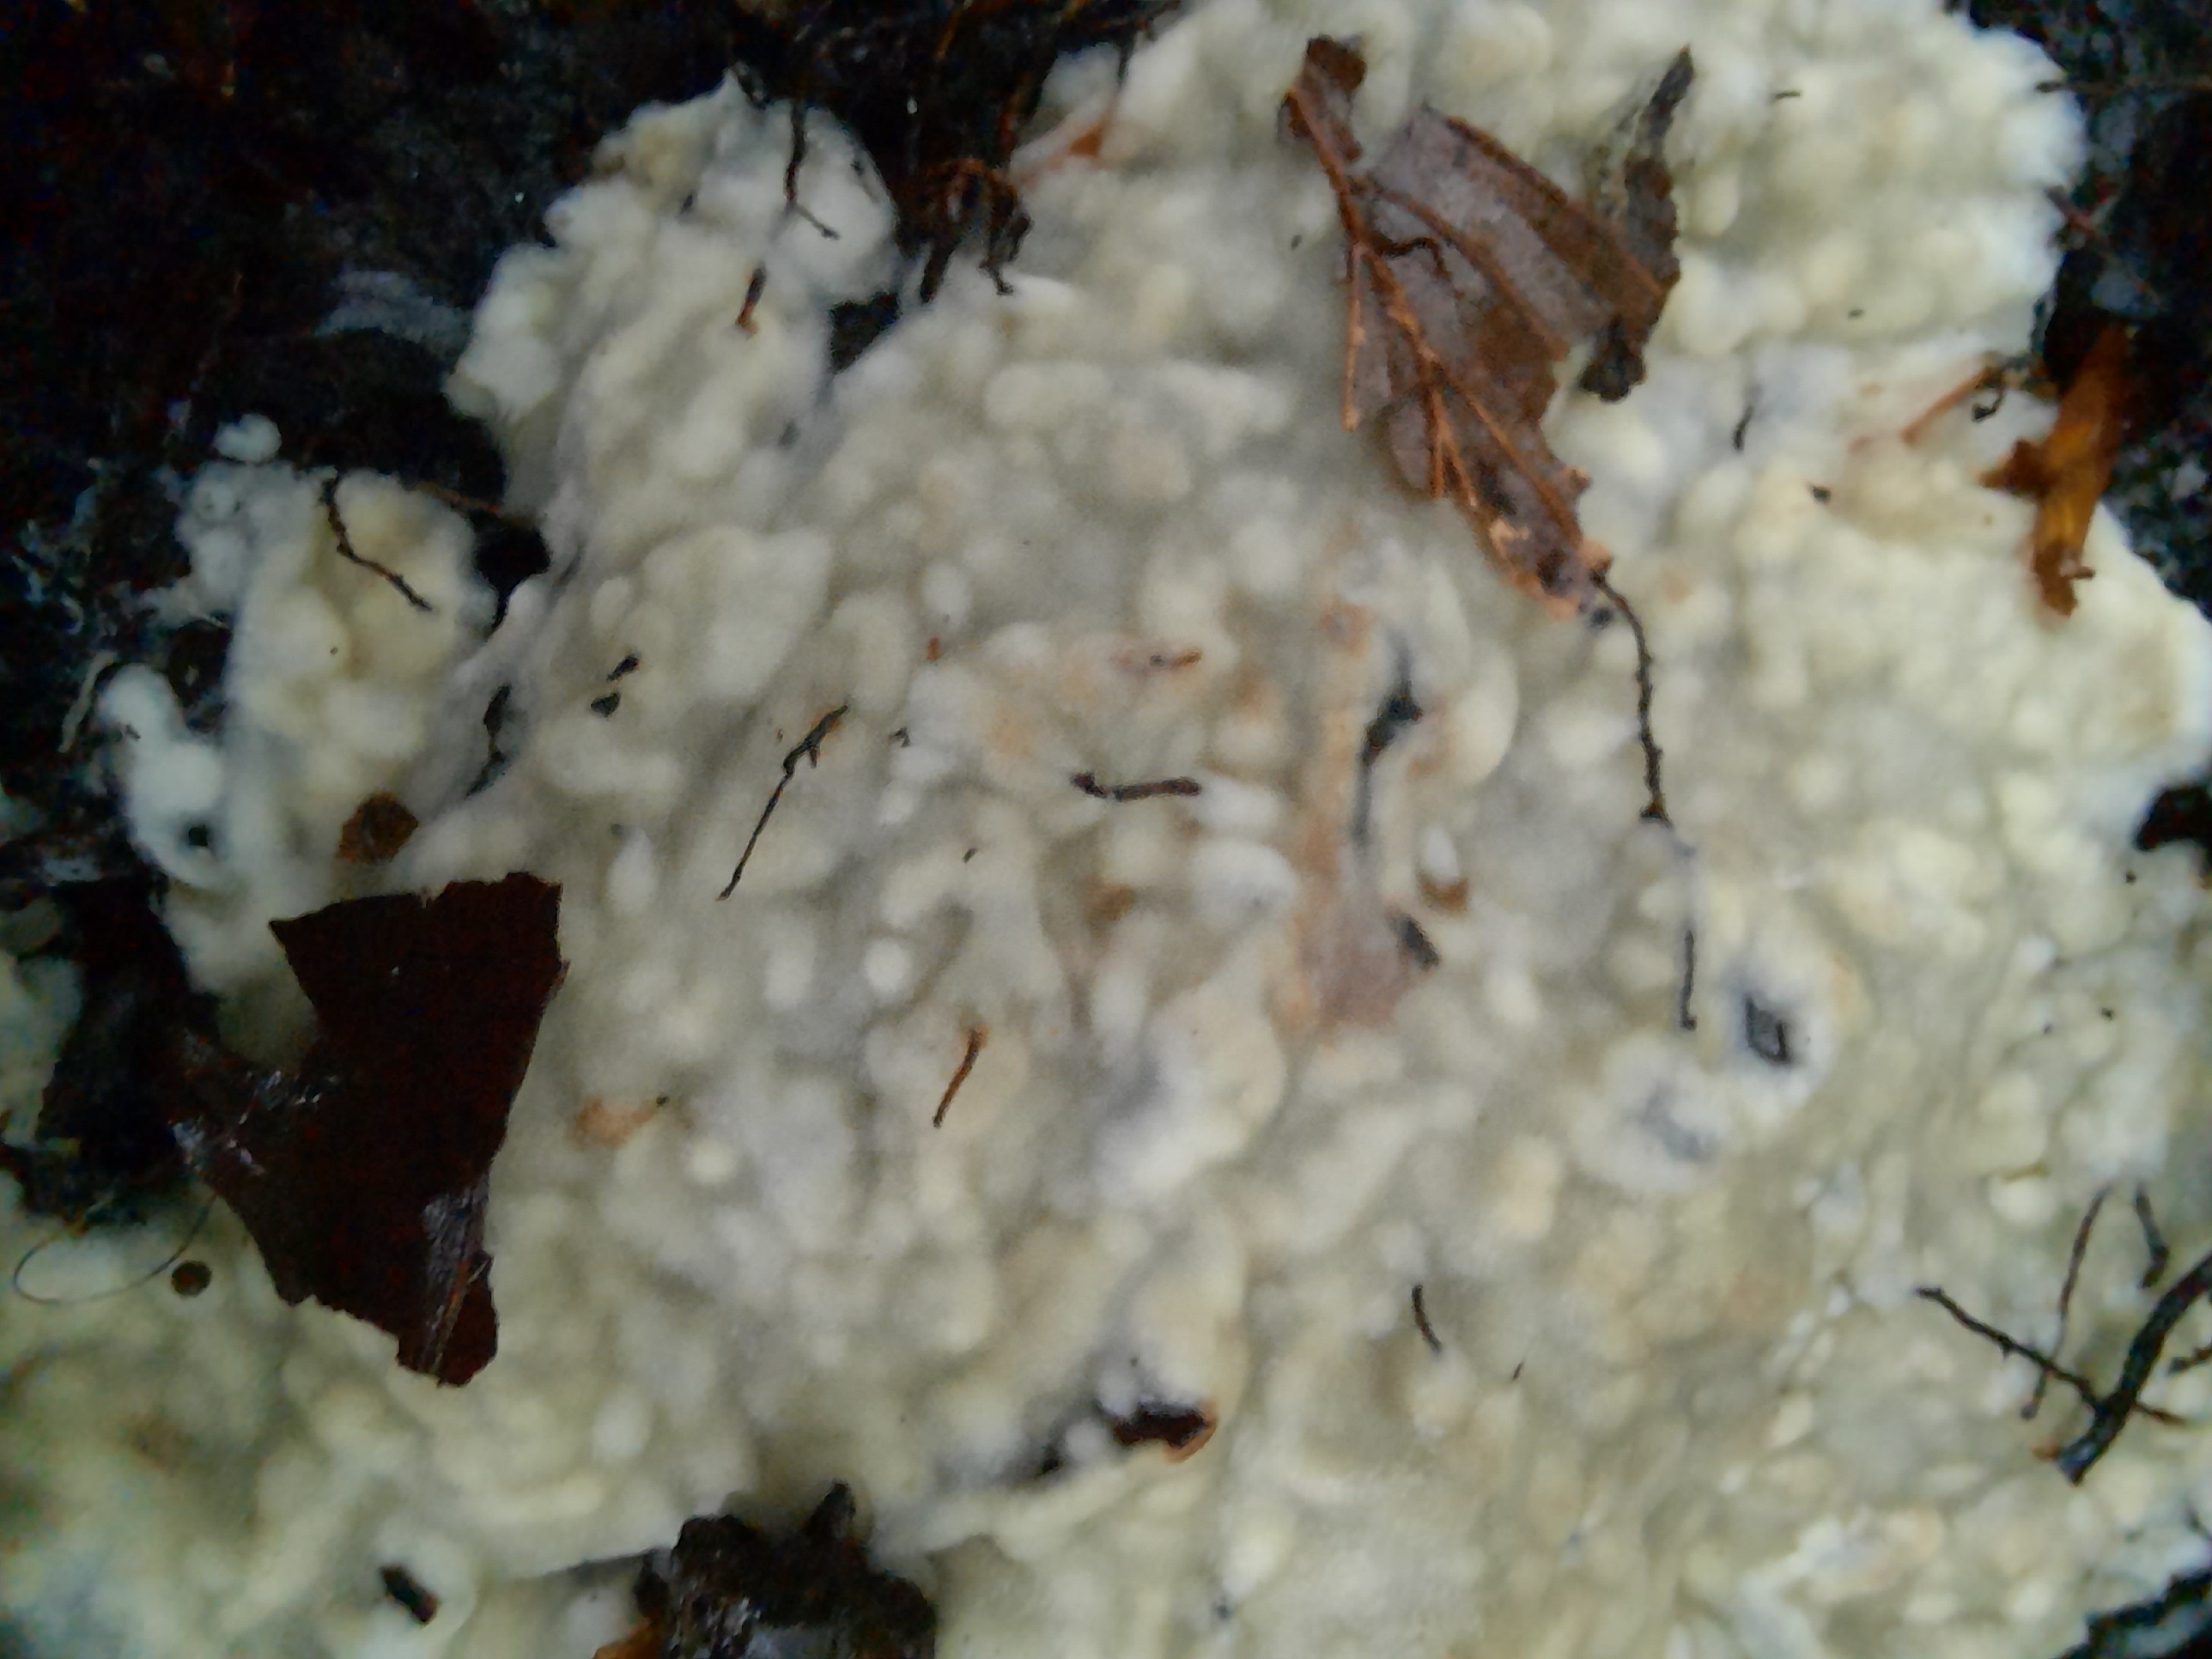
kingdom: Fungi
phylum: Basidiomycota
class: Agaricomycetes
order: Polyporales
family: Meruliaceae
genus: Physisporinus
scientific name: Physisporinus vitreus
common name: mastesvamp
